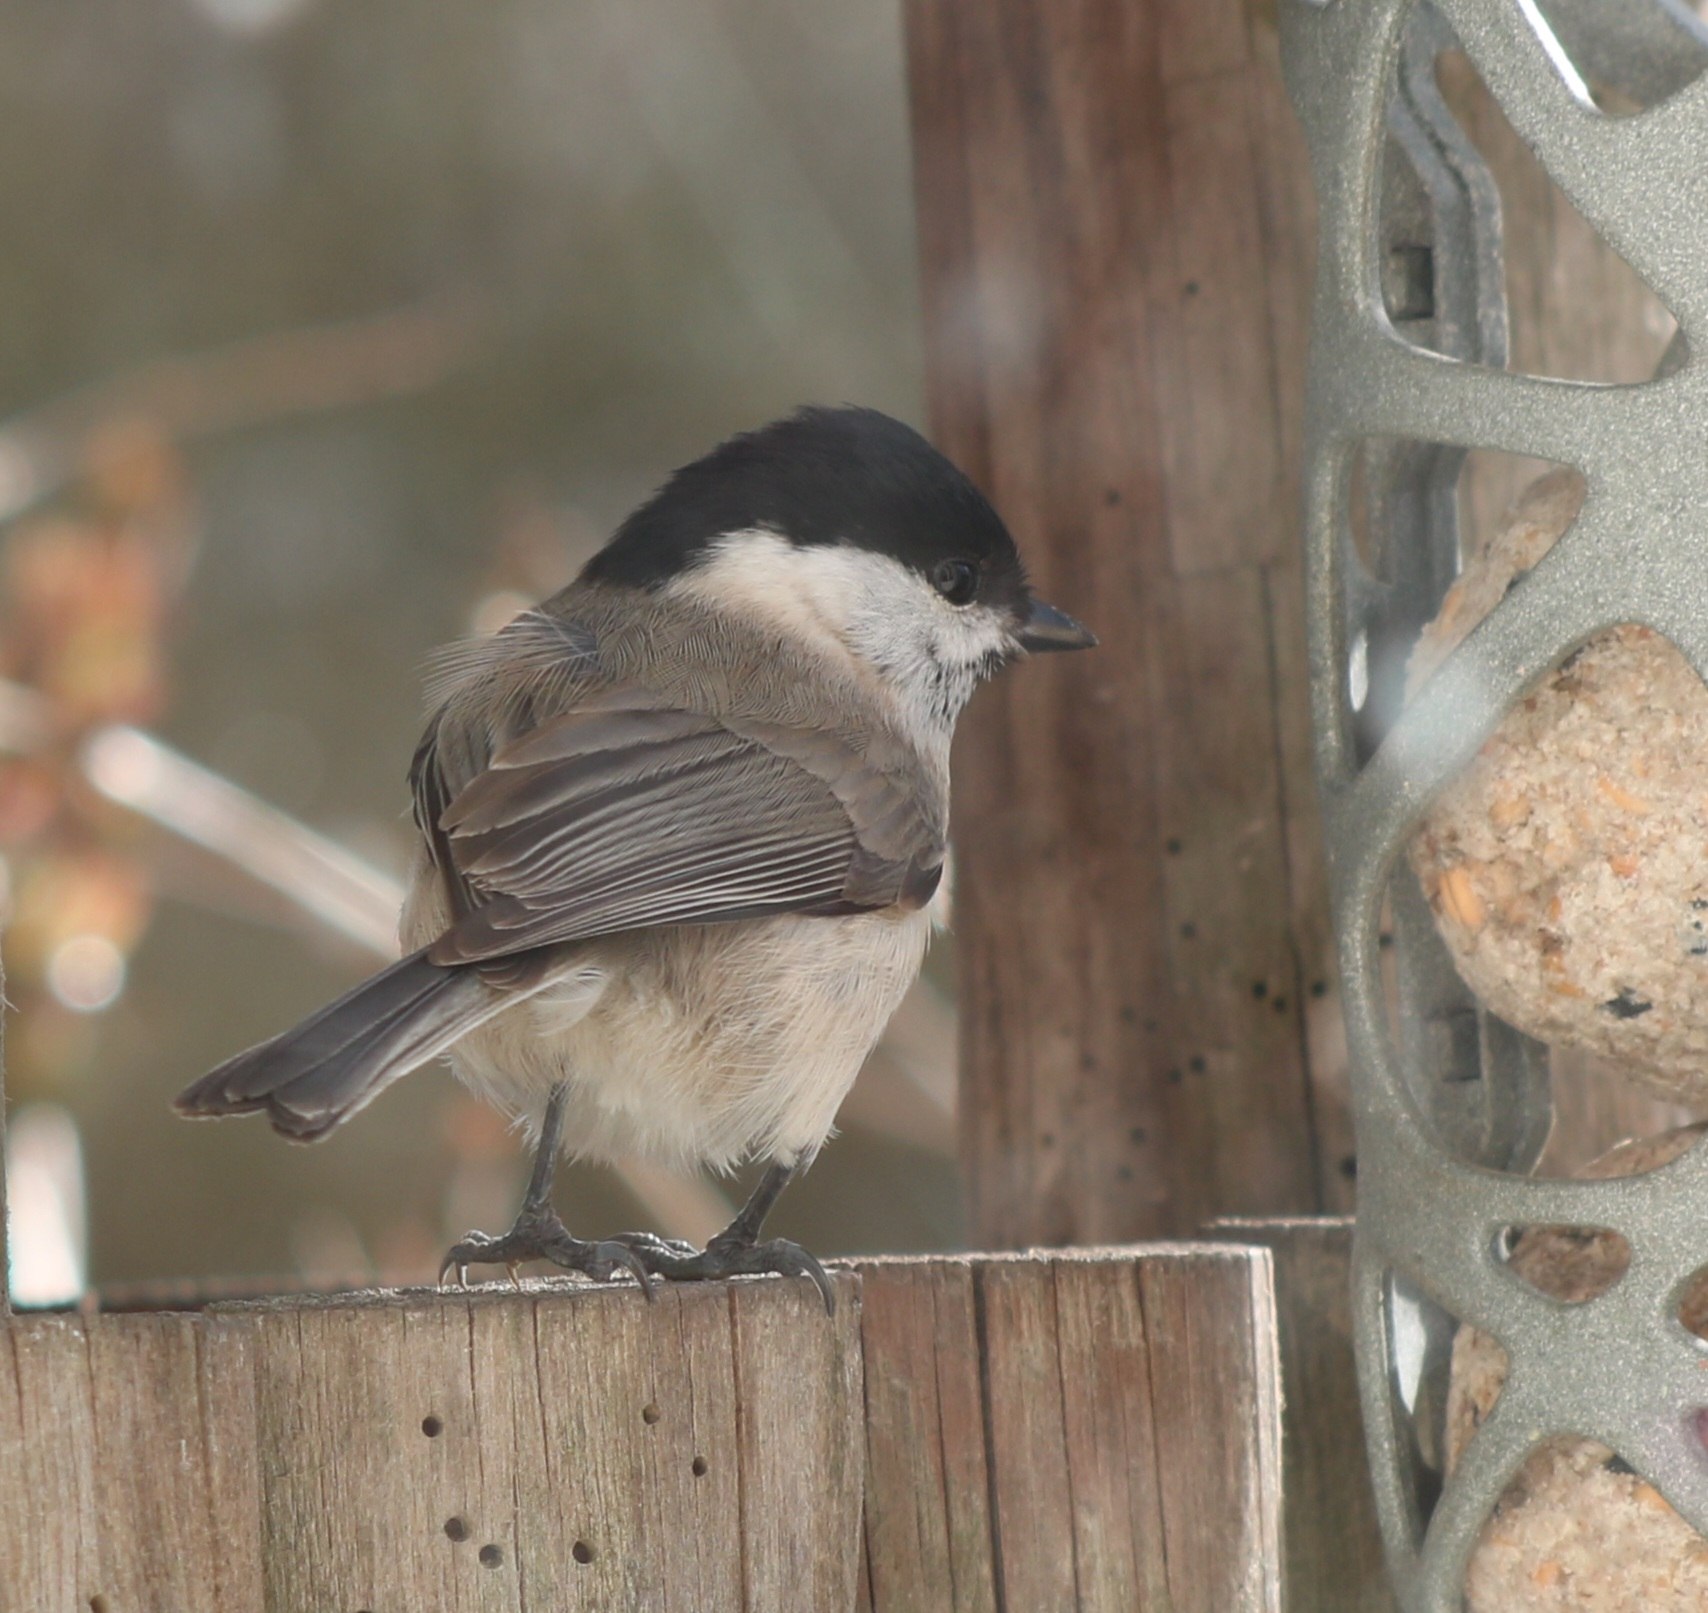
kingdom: Animalia
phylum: Chordata
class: Aves
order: Passeriformes
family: Paridae
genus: Poecile
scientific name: Poecile palustris
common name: Sumpmejse
